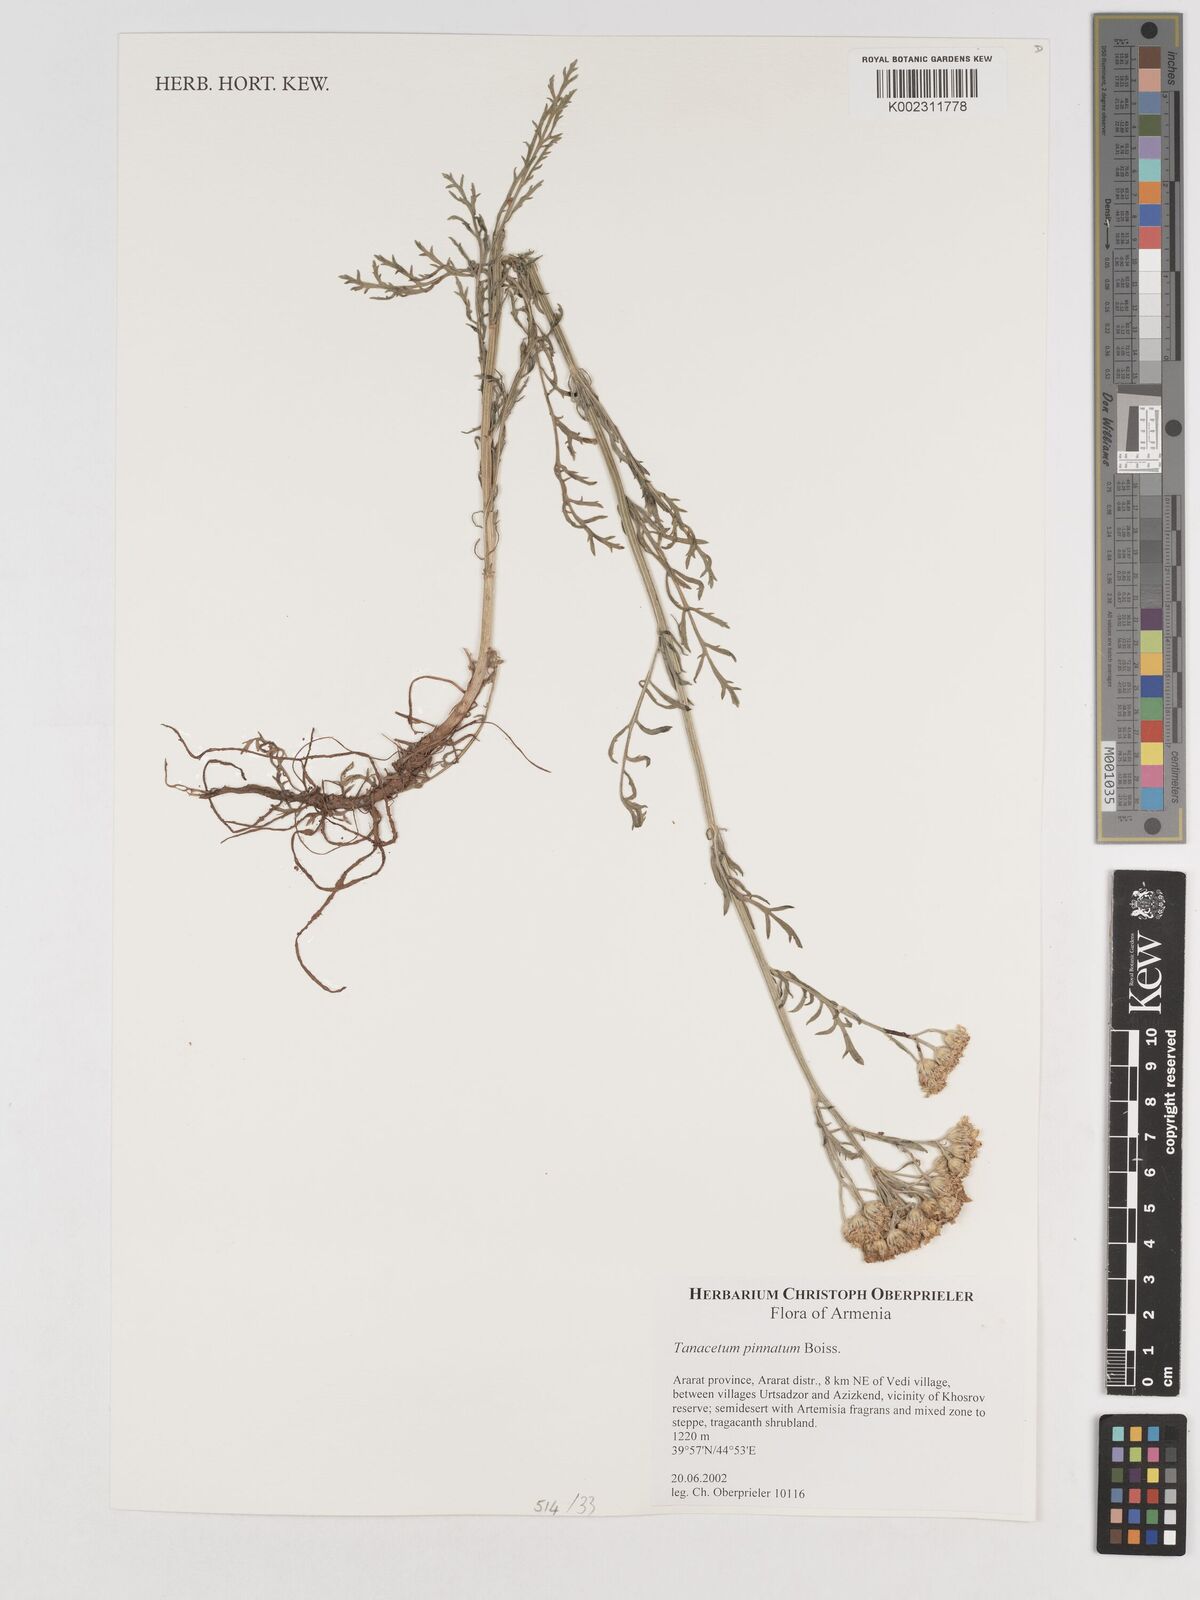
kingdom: Plantae
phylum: Tracheophyta
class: Magnoliopsida
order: Asterales
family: Asteraceae
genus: Tanacetum
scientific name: Tanacetum pinnatum
